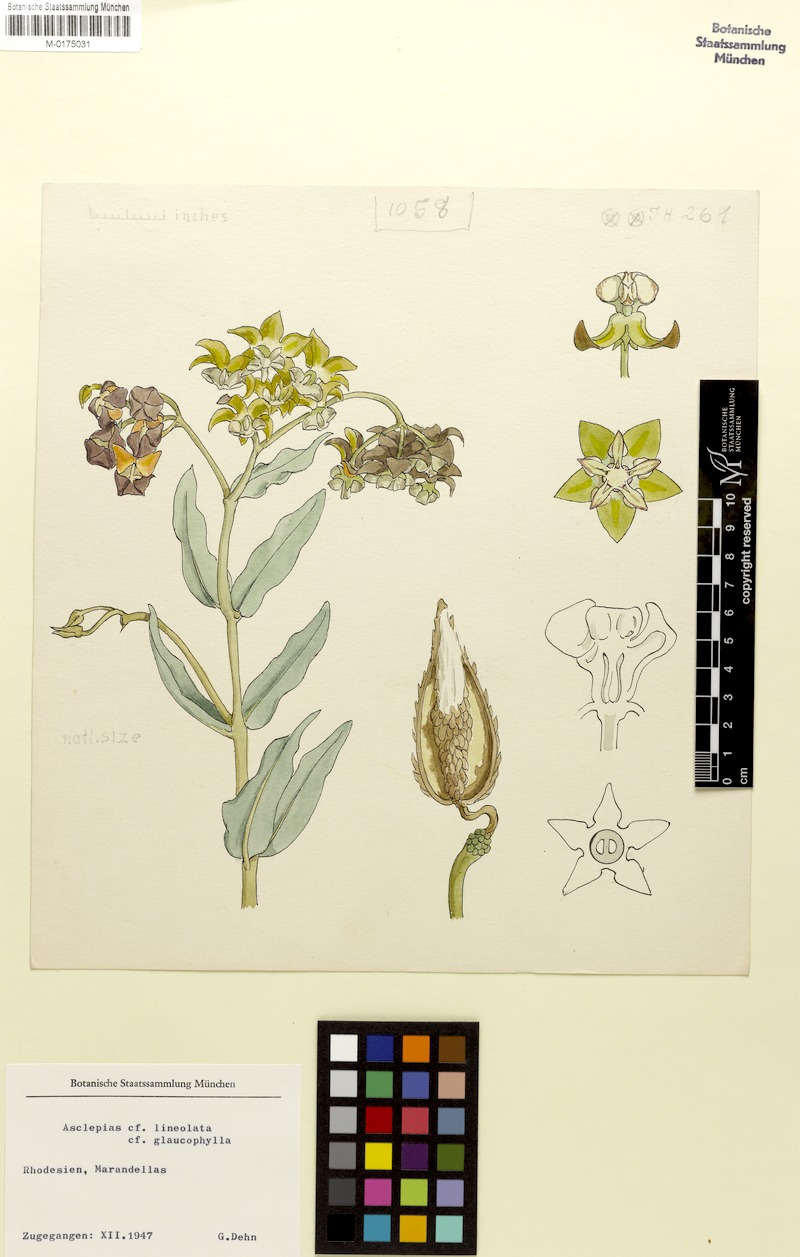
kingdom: Plantae
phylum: Tracheophyta
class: Magnoliopsida
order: Gentianales
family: Apocynaceae
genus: Asclepias
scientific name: Asclepias
